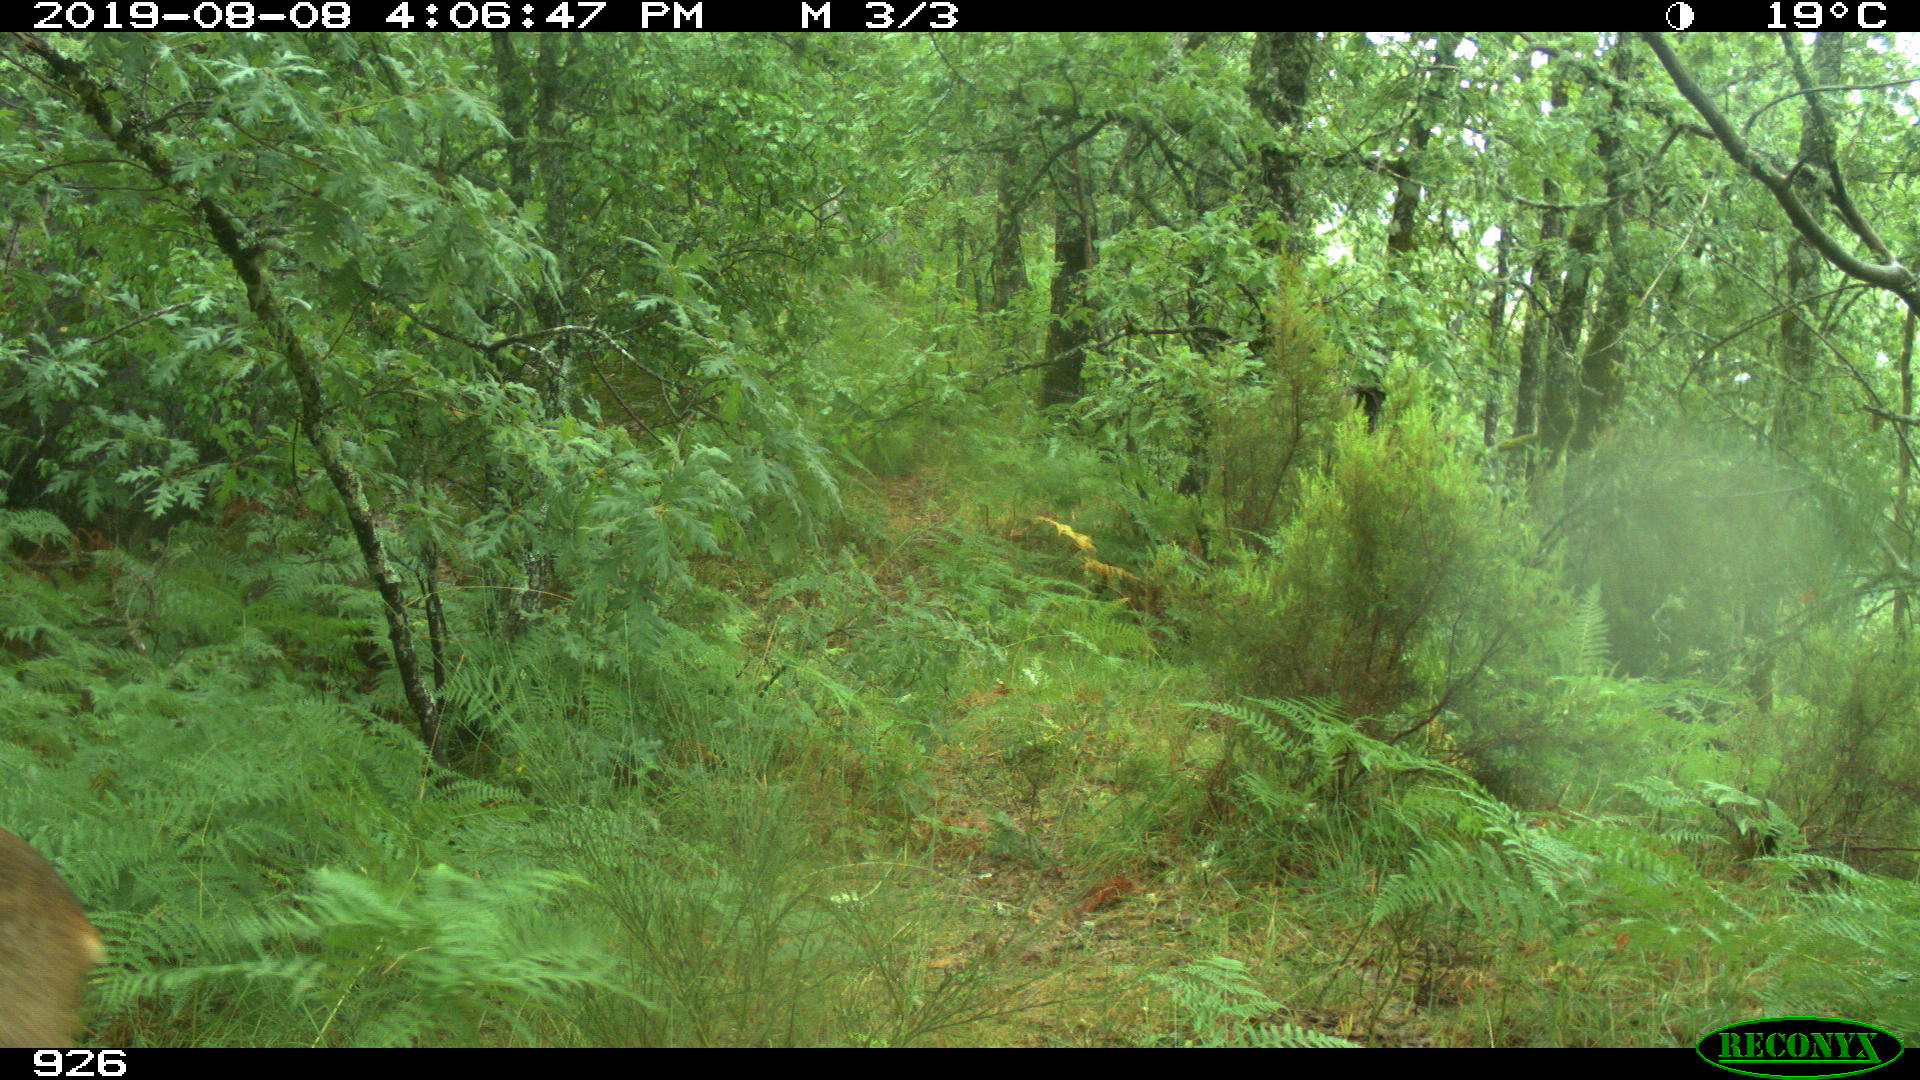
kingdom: Animalia
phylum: Chordata
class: Mammalia
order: Artiodactyla
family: Cervidae
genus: Capreolus
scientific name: Capreolus capreolus
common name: Western roe deer
